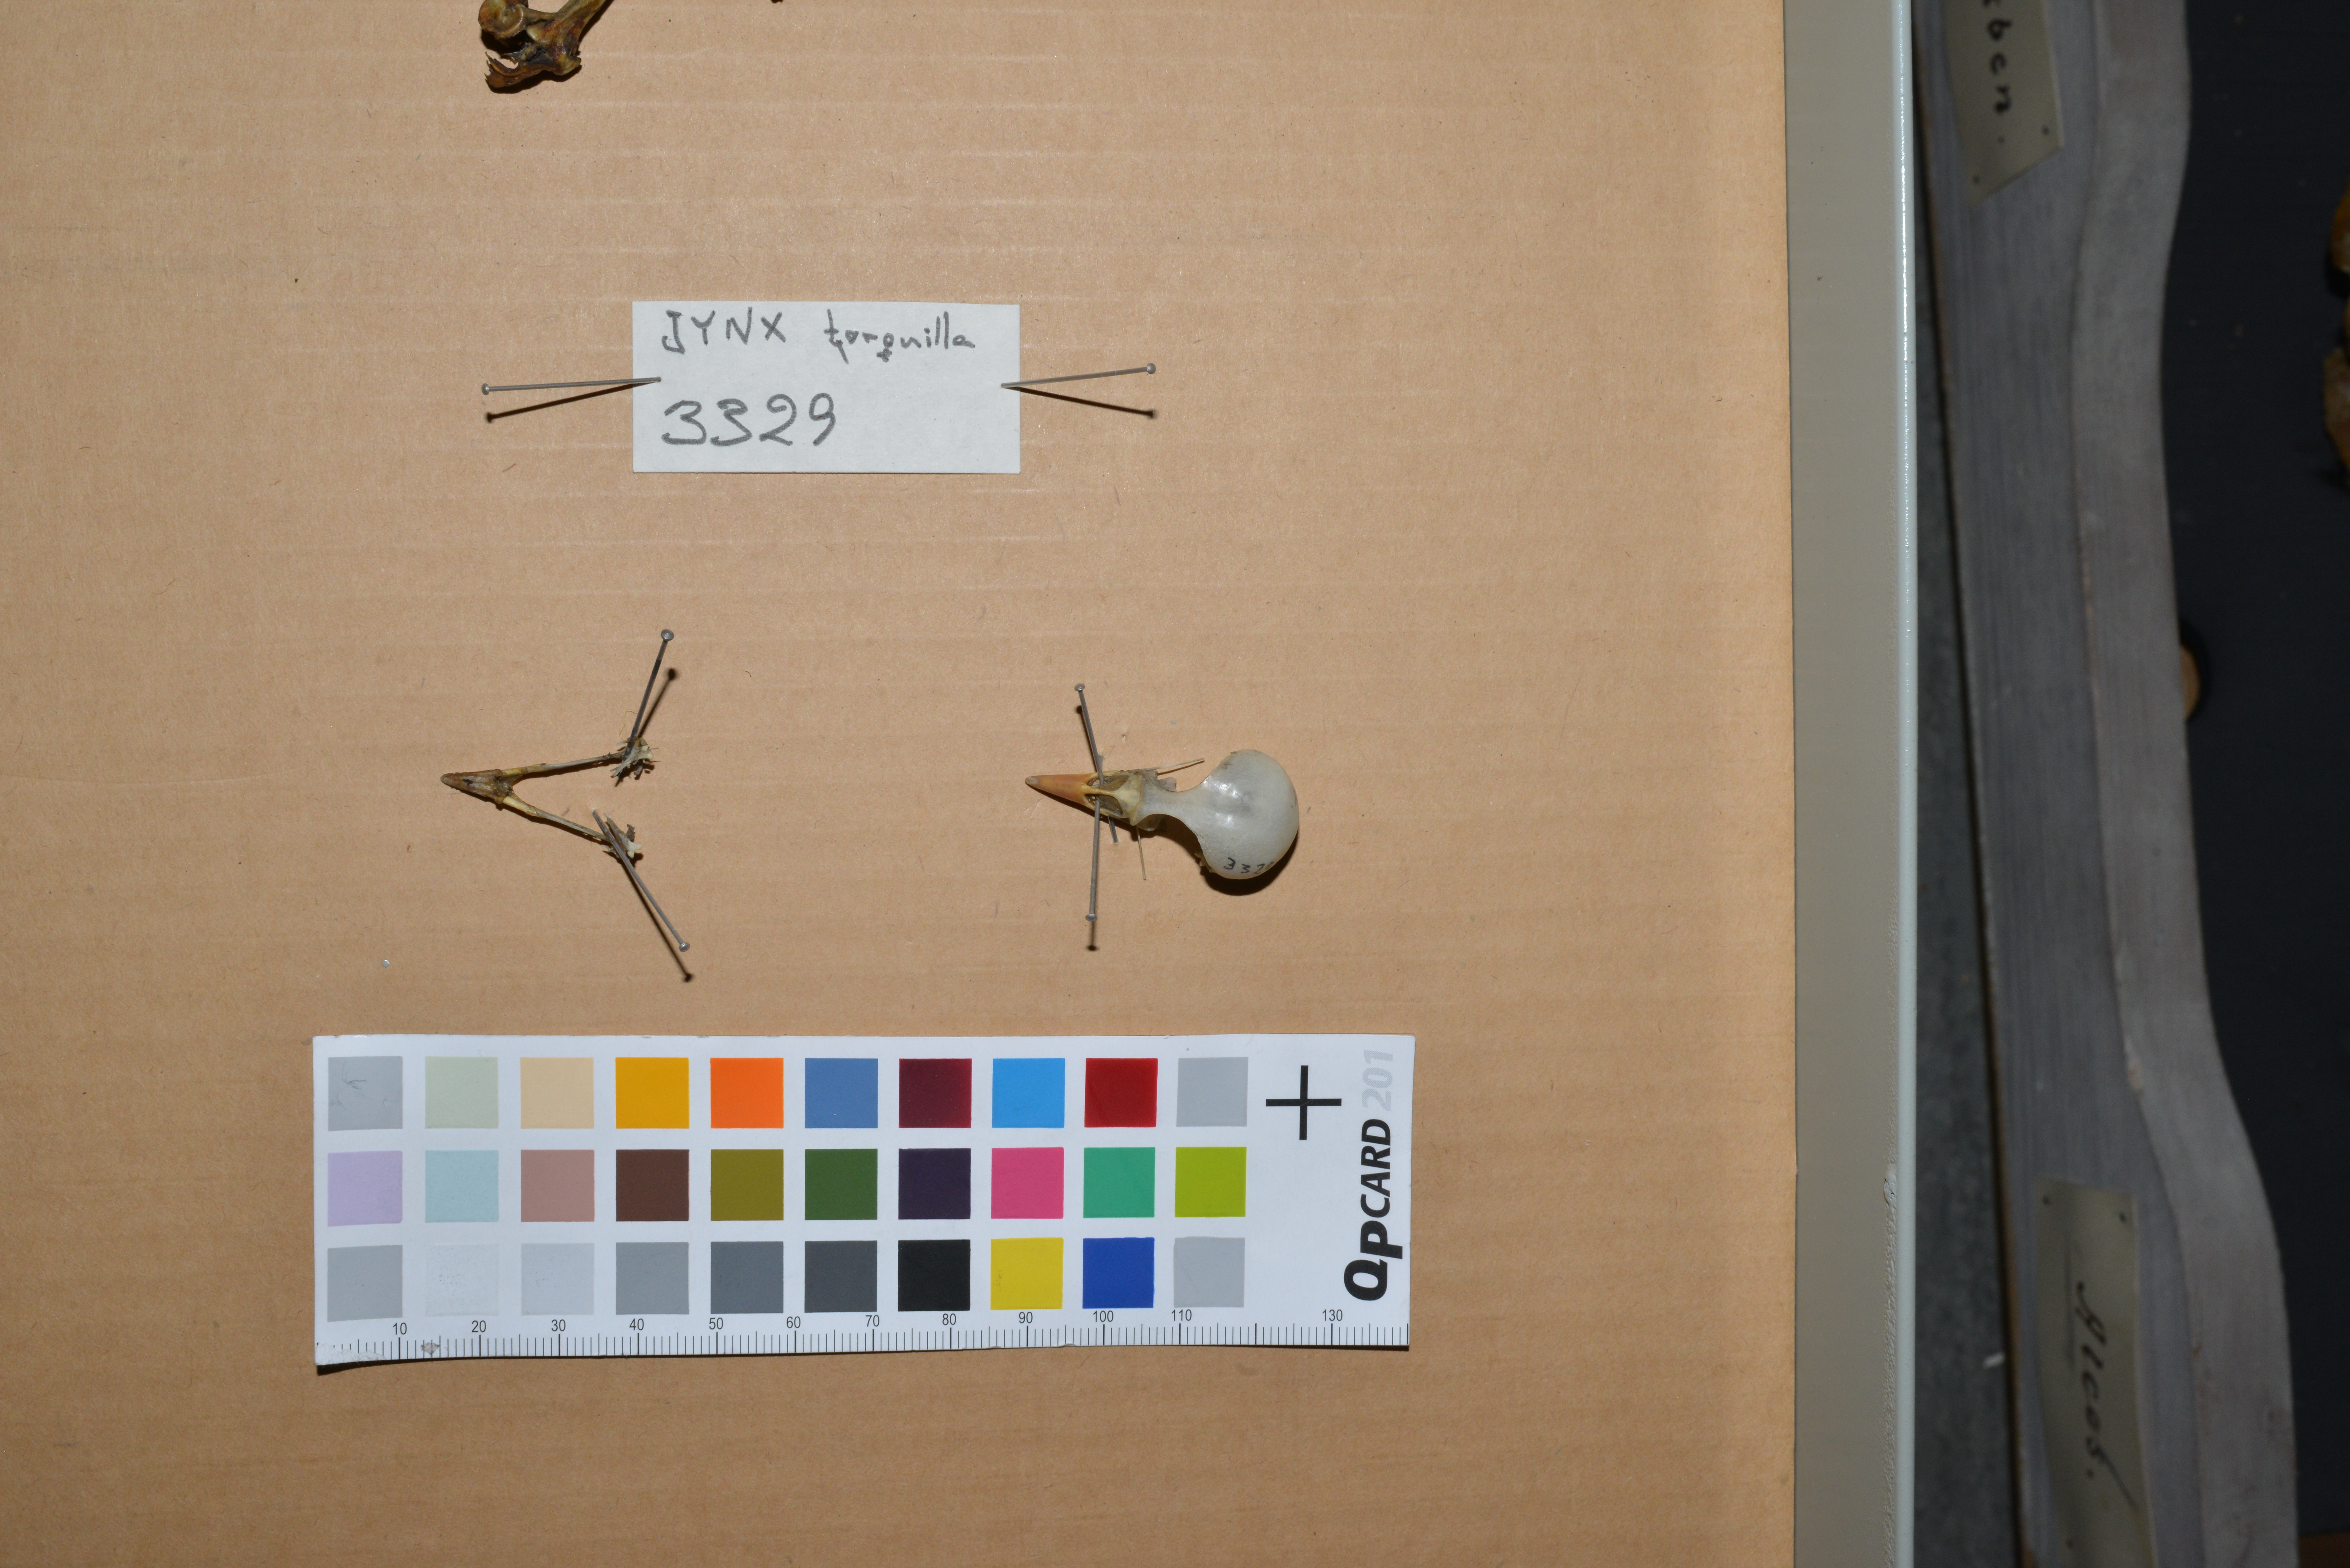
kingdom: Animalia
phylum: Chordata
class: Aves
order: Piciformes
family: Picidae
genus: Jynx
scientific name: Jynx torquilla
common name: Eurasian wryneck
